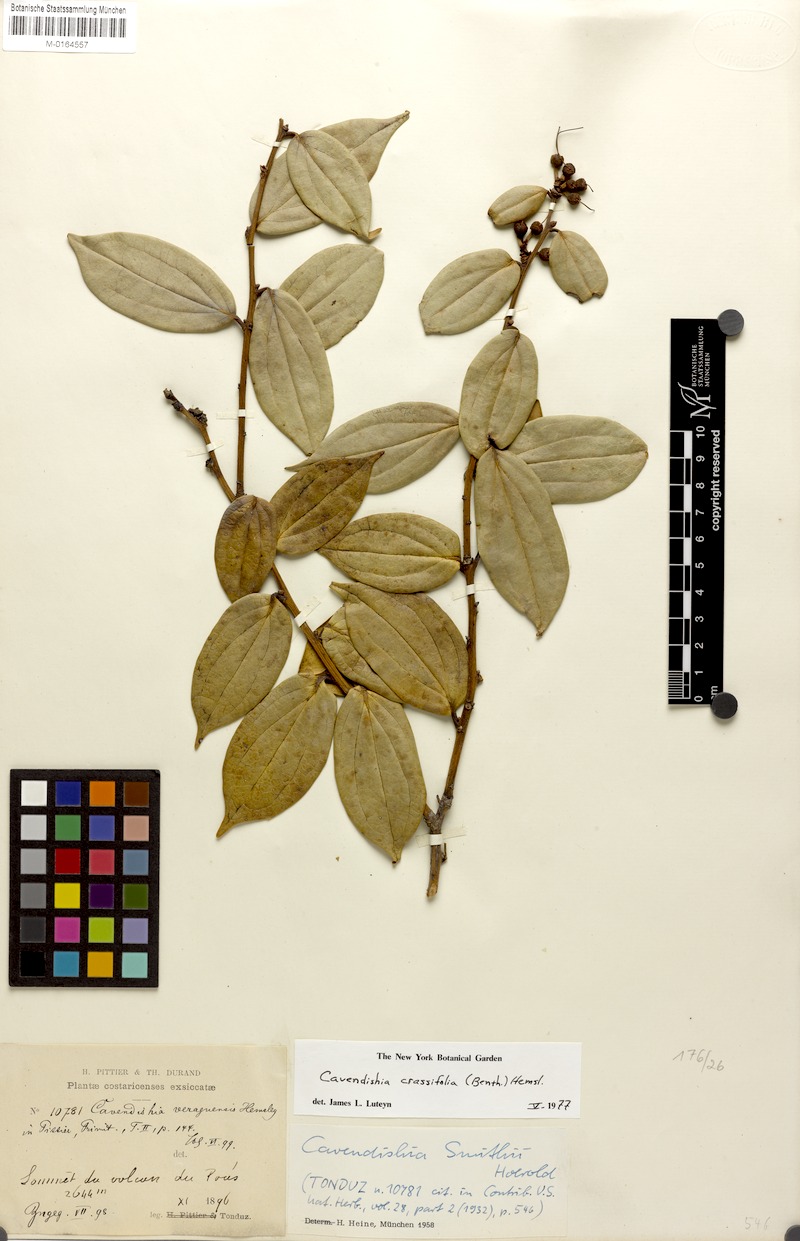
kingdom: Plantae
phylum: Tracheophyta
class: Magnoliopsida
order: Ericales
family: Ericaceae
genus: Cavendishia
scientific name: Cavendishia bracteata
